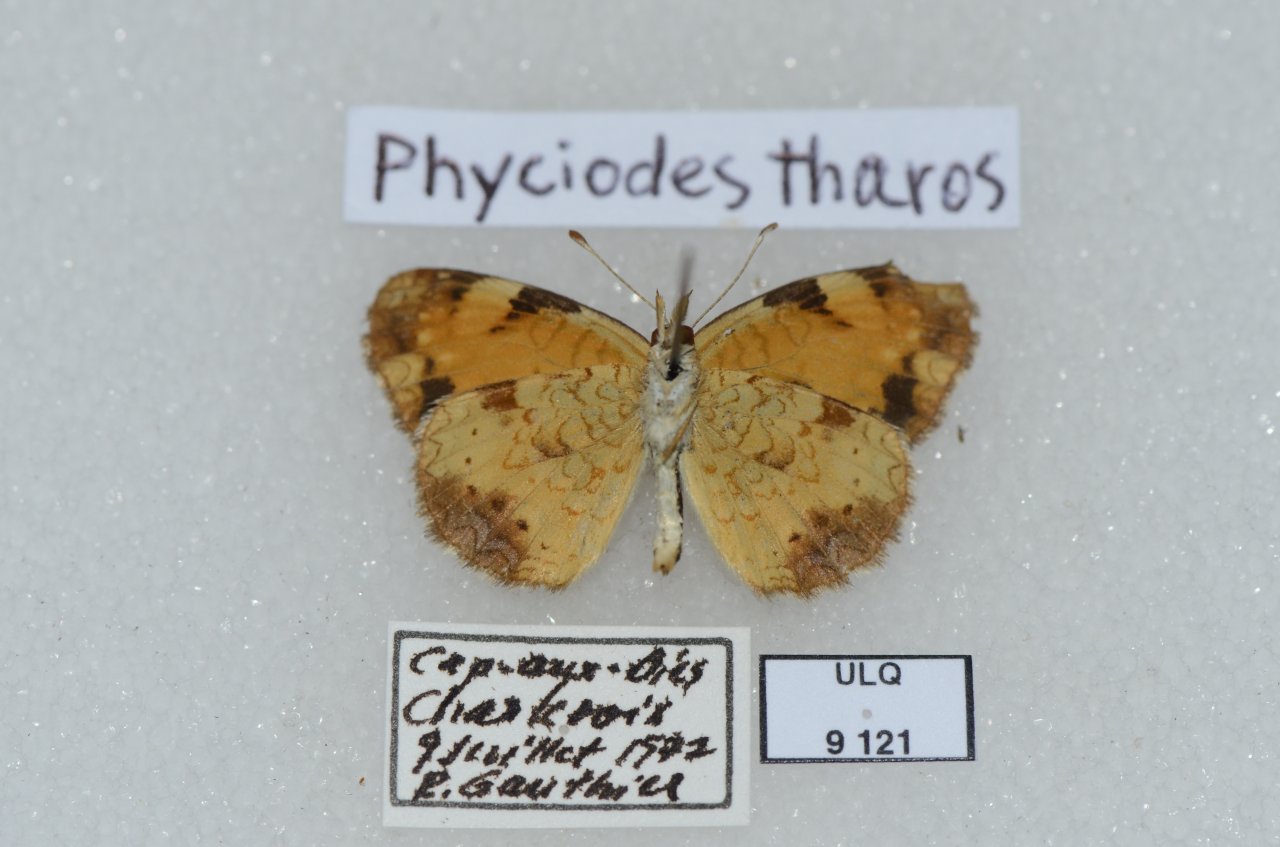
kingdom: Animalia
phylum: Arthropoda
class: Insecta
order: Lepidoptera
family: Nymphalidae
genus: Phyciodes
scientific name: Phyciodes tharos
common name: Northern Crescent
